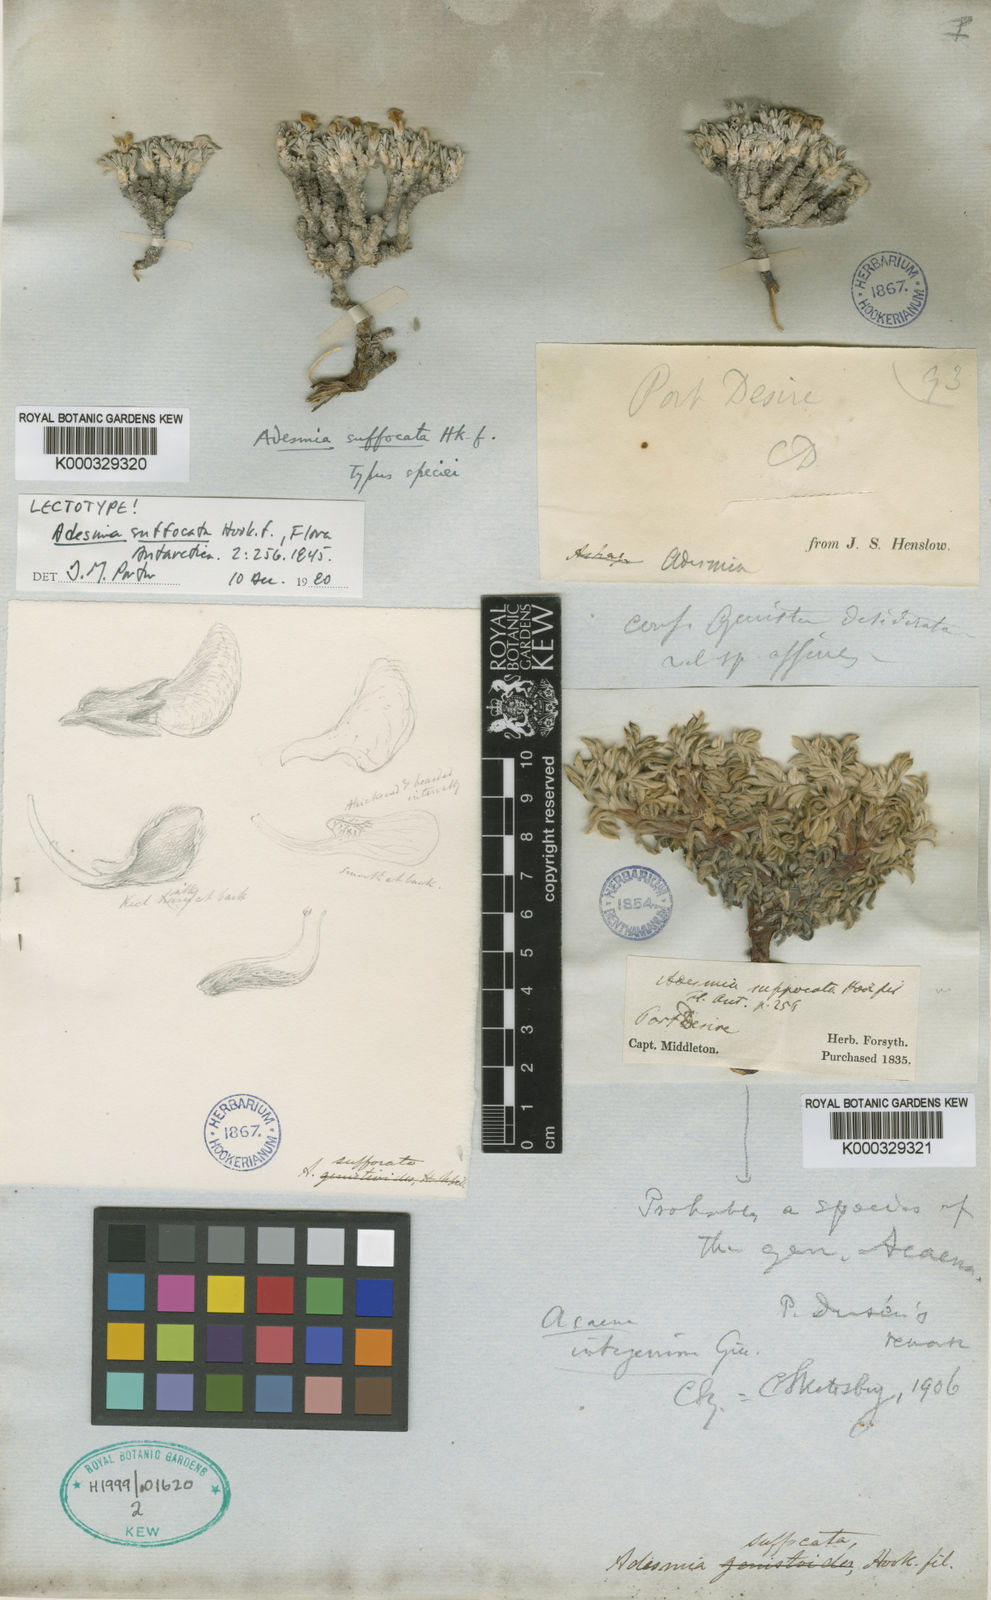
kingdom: Plantae
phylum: Tracheophyta
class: Magnoliopsida
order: Fabales
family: Fabaceae
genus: Adesmia
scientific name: Adesmia suffocata
